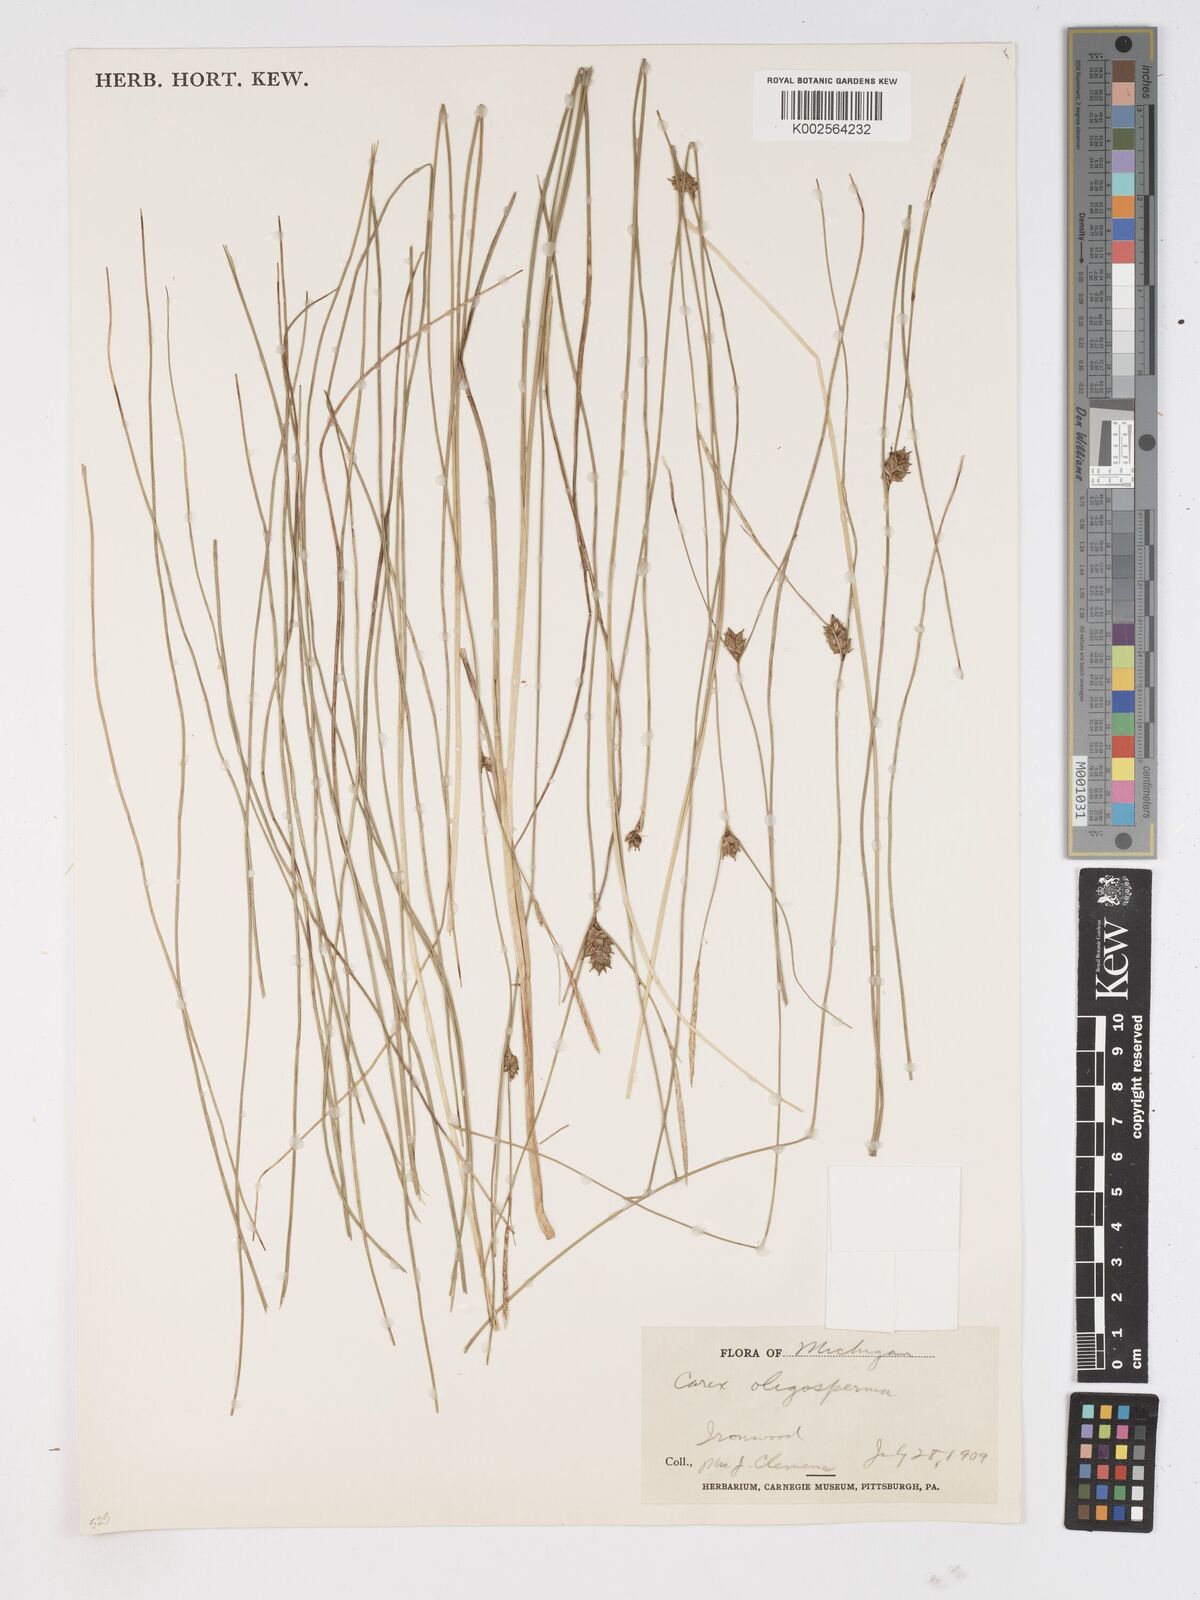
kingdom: Plantae
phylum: Tracheophyta
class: Liliopsida
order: Poales
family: Cyperaceae
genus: Carex
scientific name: Carex oligosperma
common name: Few-seed sedge
